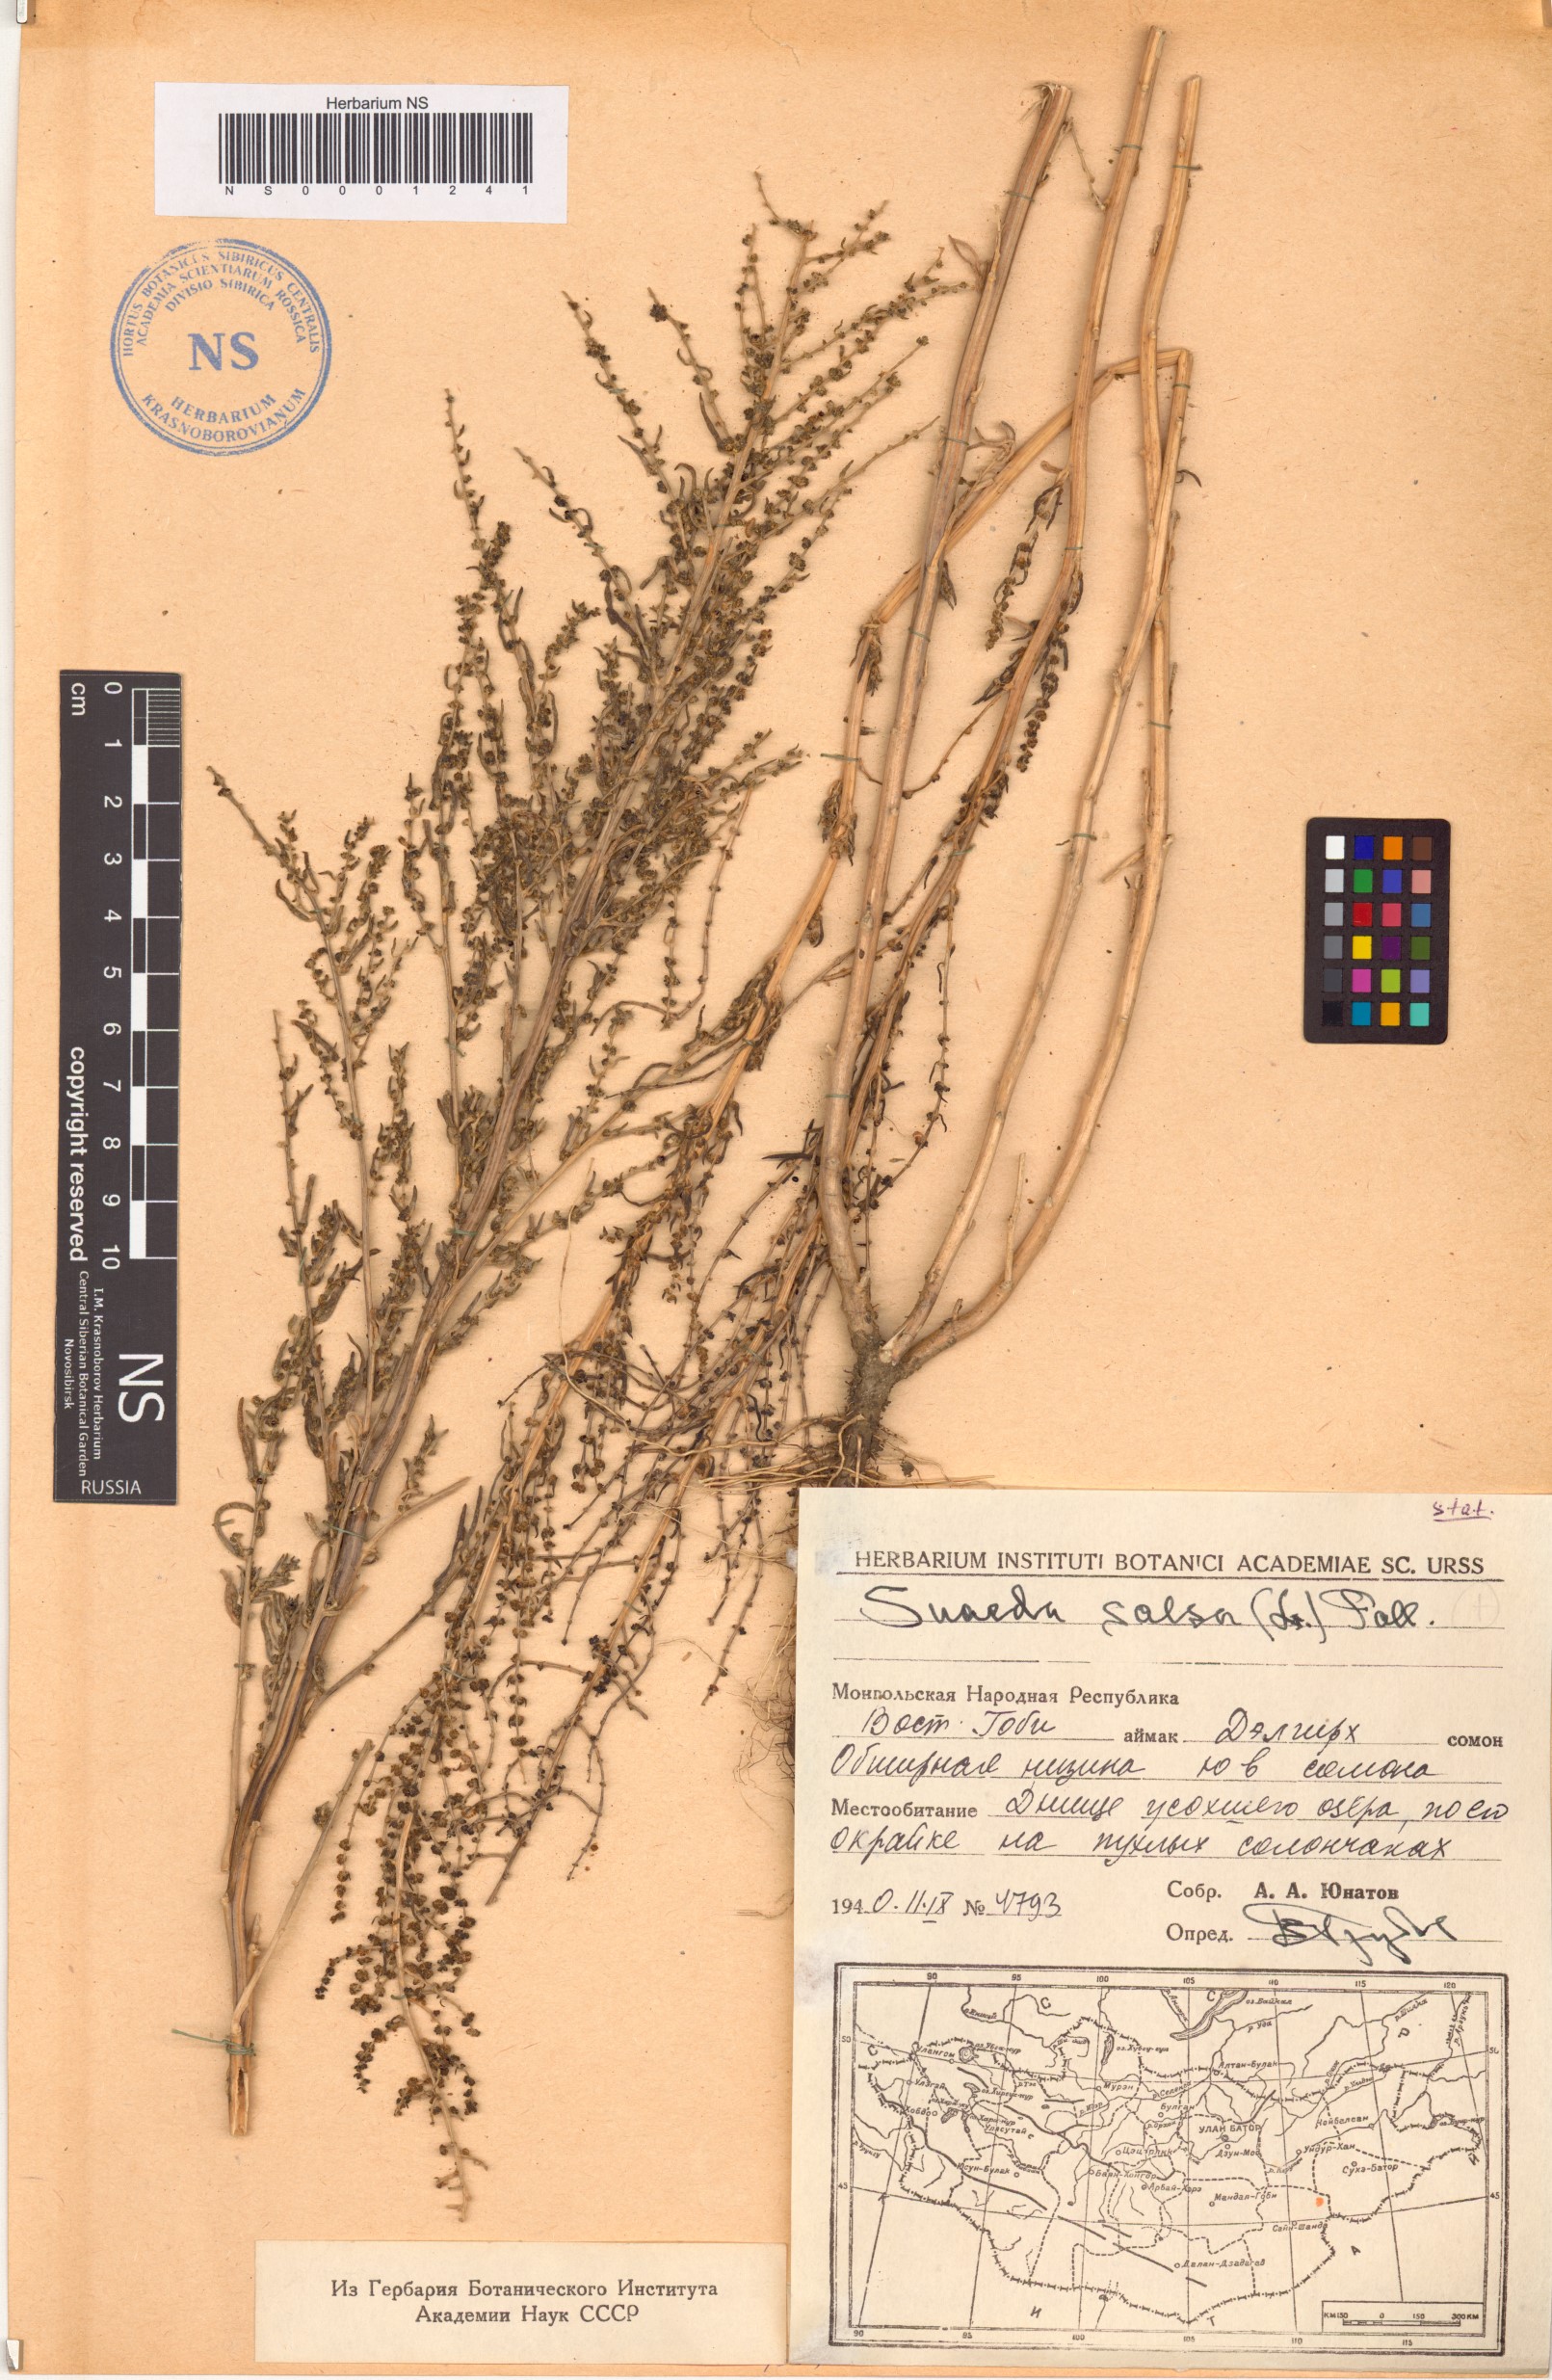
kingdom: Plantae
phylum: Tracheophyta
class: Magnoliopsida
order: Caryophyllales
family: Amaranthaceae
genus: Suaeda
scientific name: Suaeda salsa
